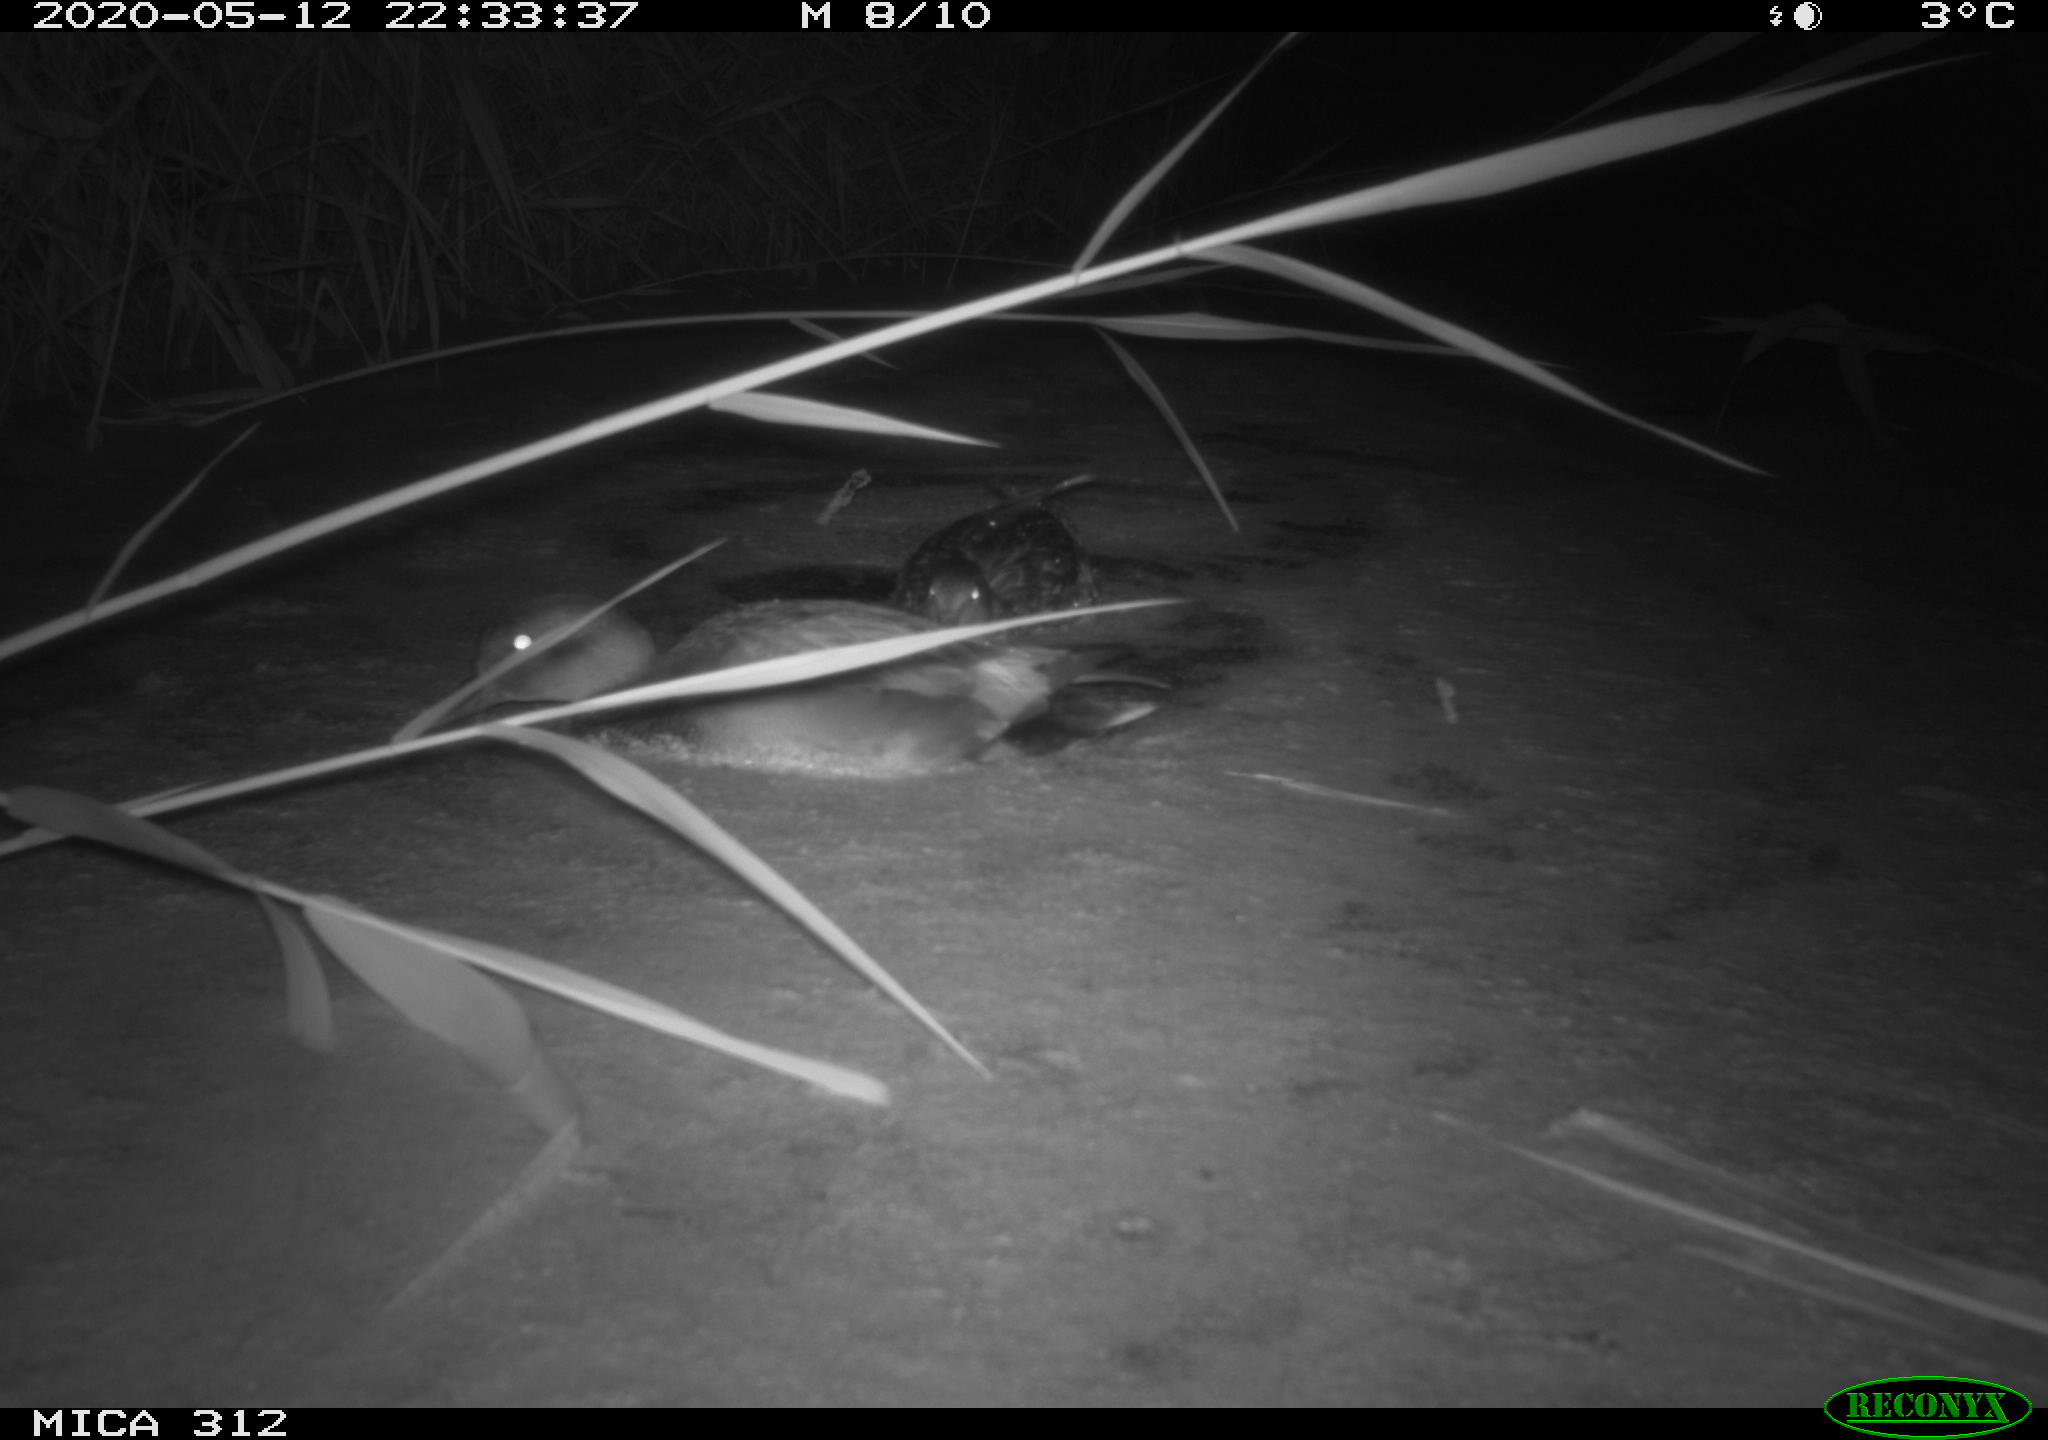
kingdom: Animalia
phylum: Chordata
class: Aves
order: Anseriformes
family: Anatidae
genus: Anas
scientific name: Anas platyrhynchos
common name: Mallard
